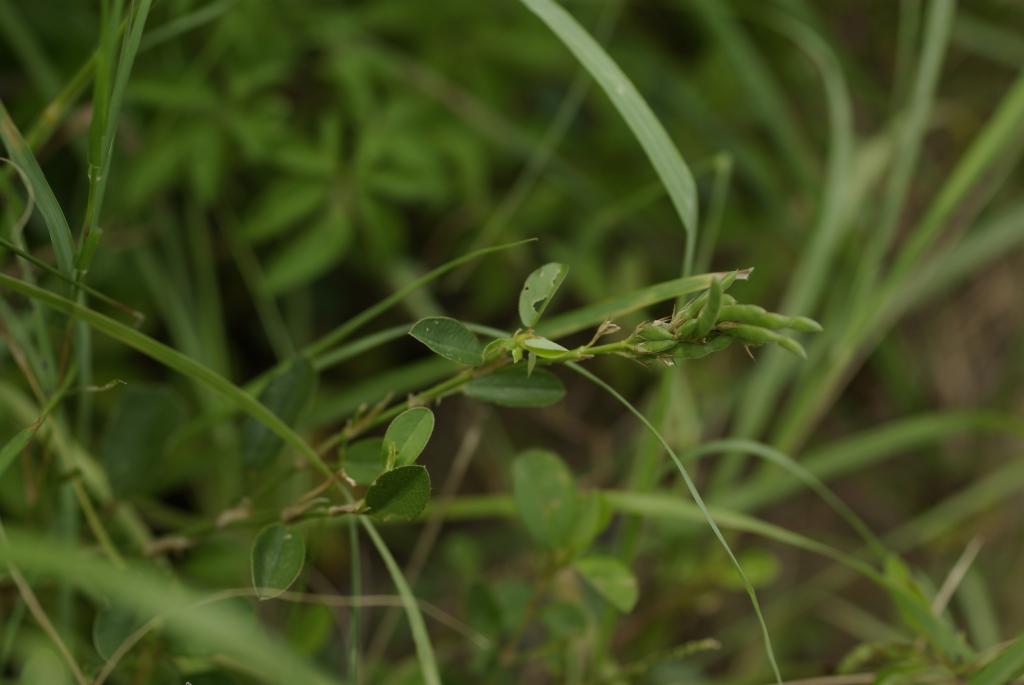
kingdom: Plantae
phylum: Tracheophyta
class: Magnoliopsida
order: Fabales
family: Fabaceae
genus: Alysicarpus
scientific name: Alysicarpus vaginalis
